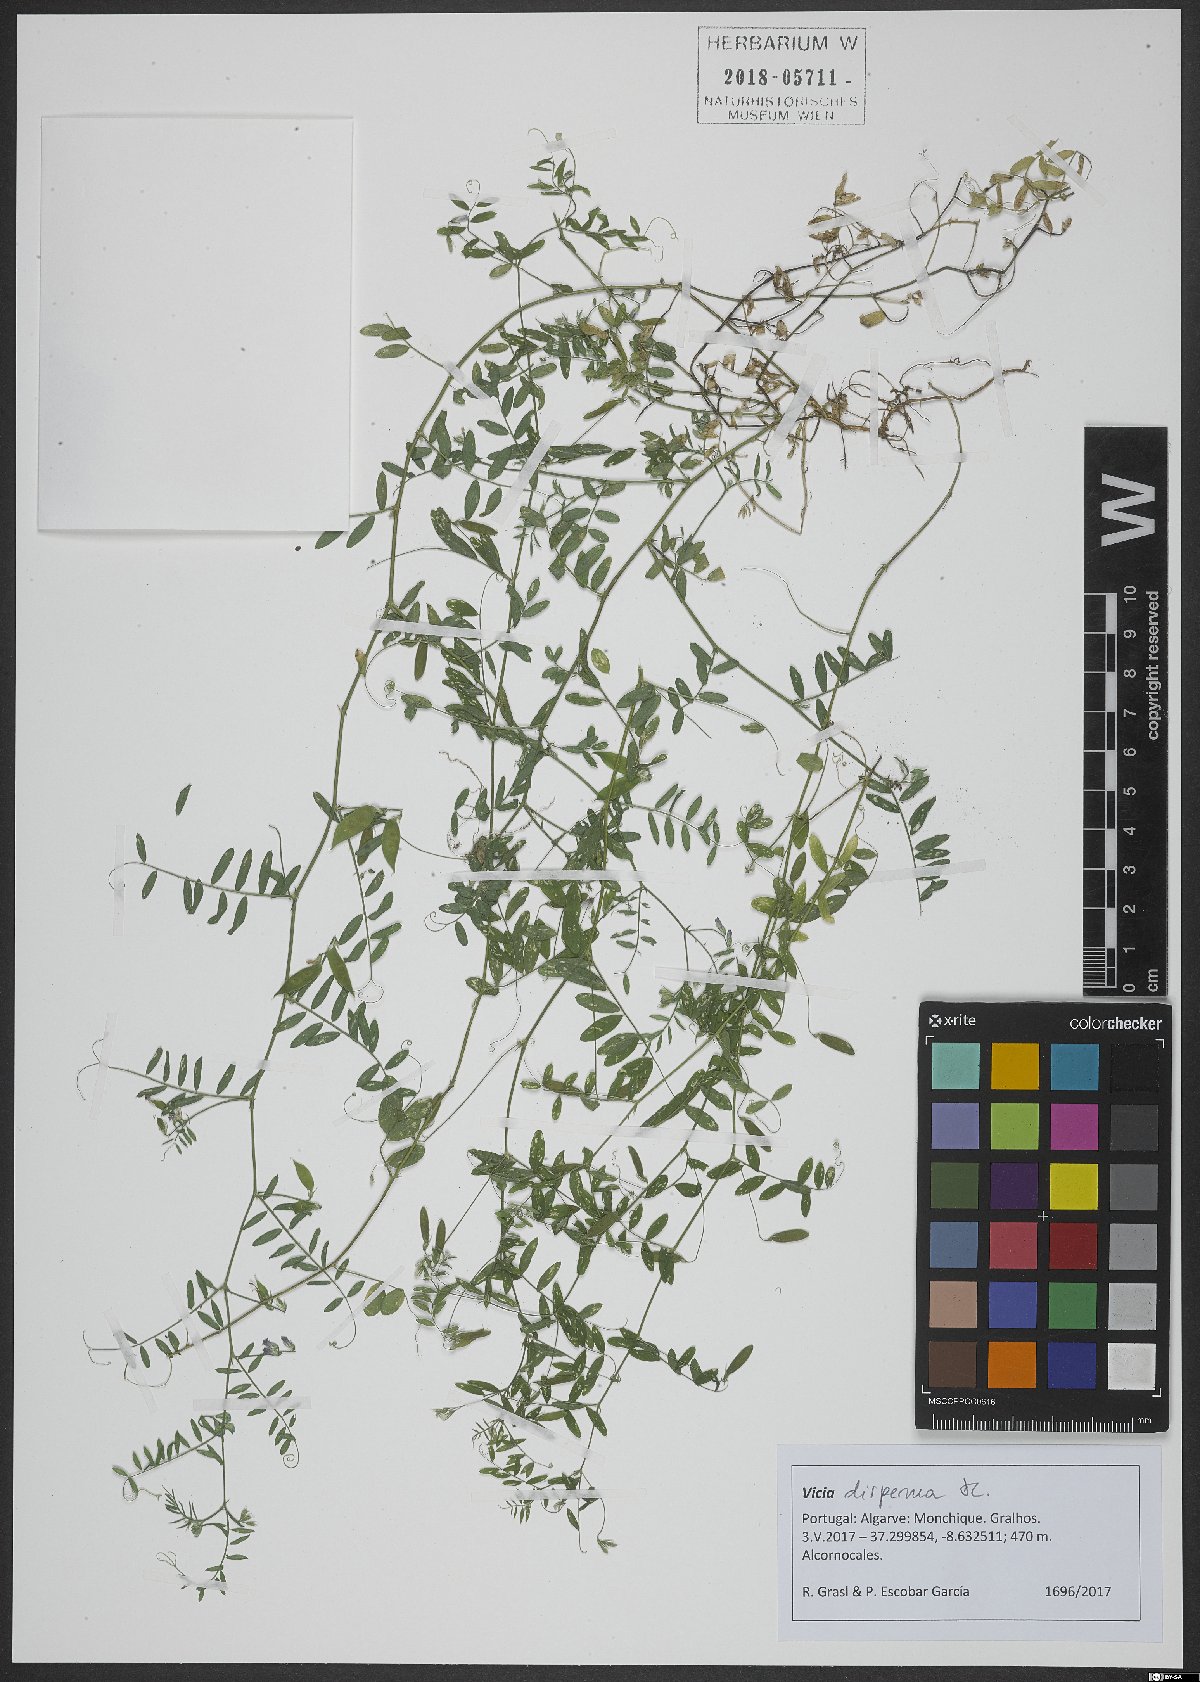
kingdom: Plantae
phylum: Tracheophyta
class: Magnoliopsida
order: Fabales
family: Fabaceae
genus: Vicia
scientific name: Vicia disperma
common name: European vetch
